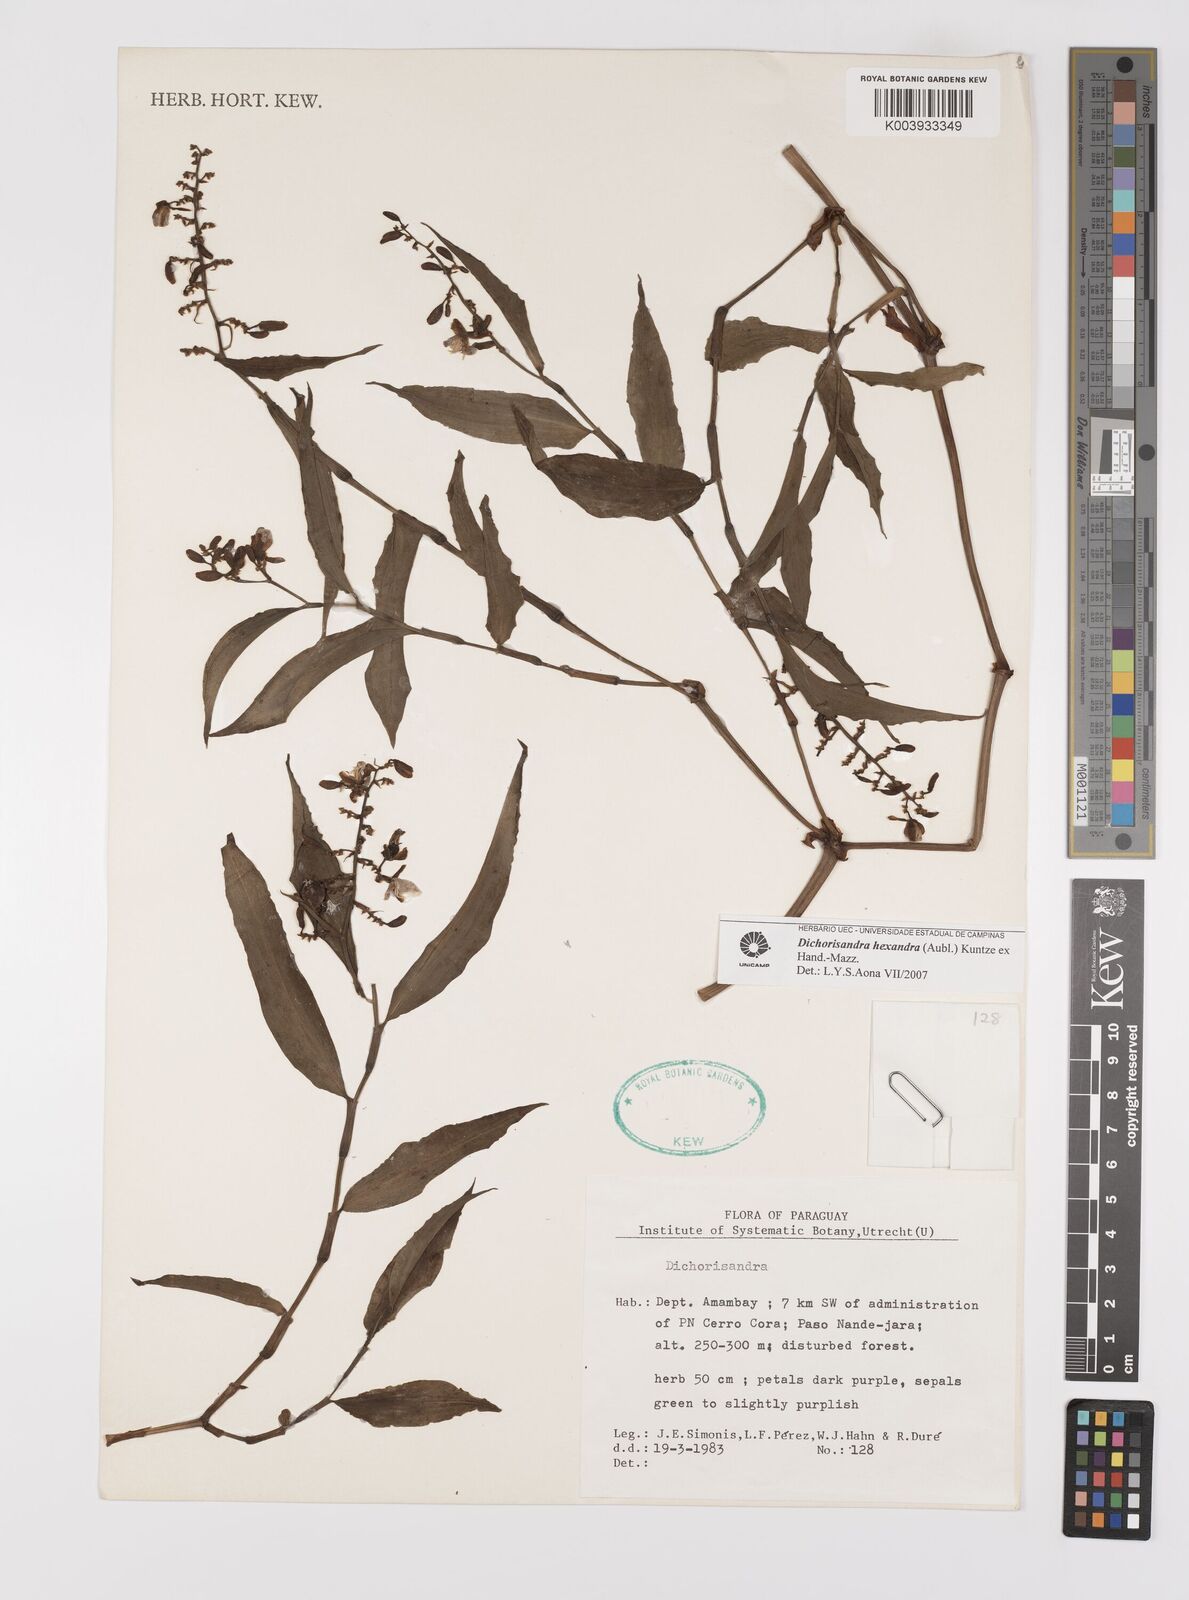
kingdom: Plantae
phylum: Tracheophyta
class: Liliopsida
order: Commelinales
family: Commelinaceae
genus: Dichorisandra
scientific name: Dichorisandra hexandra
